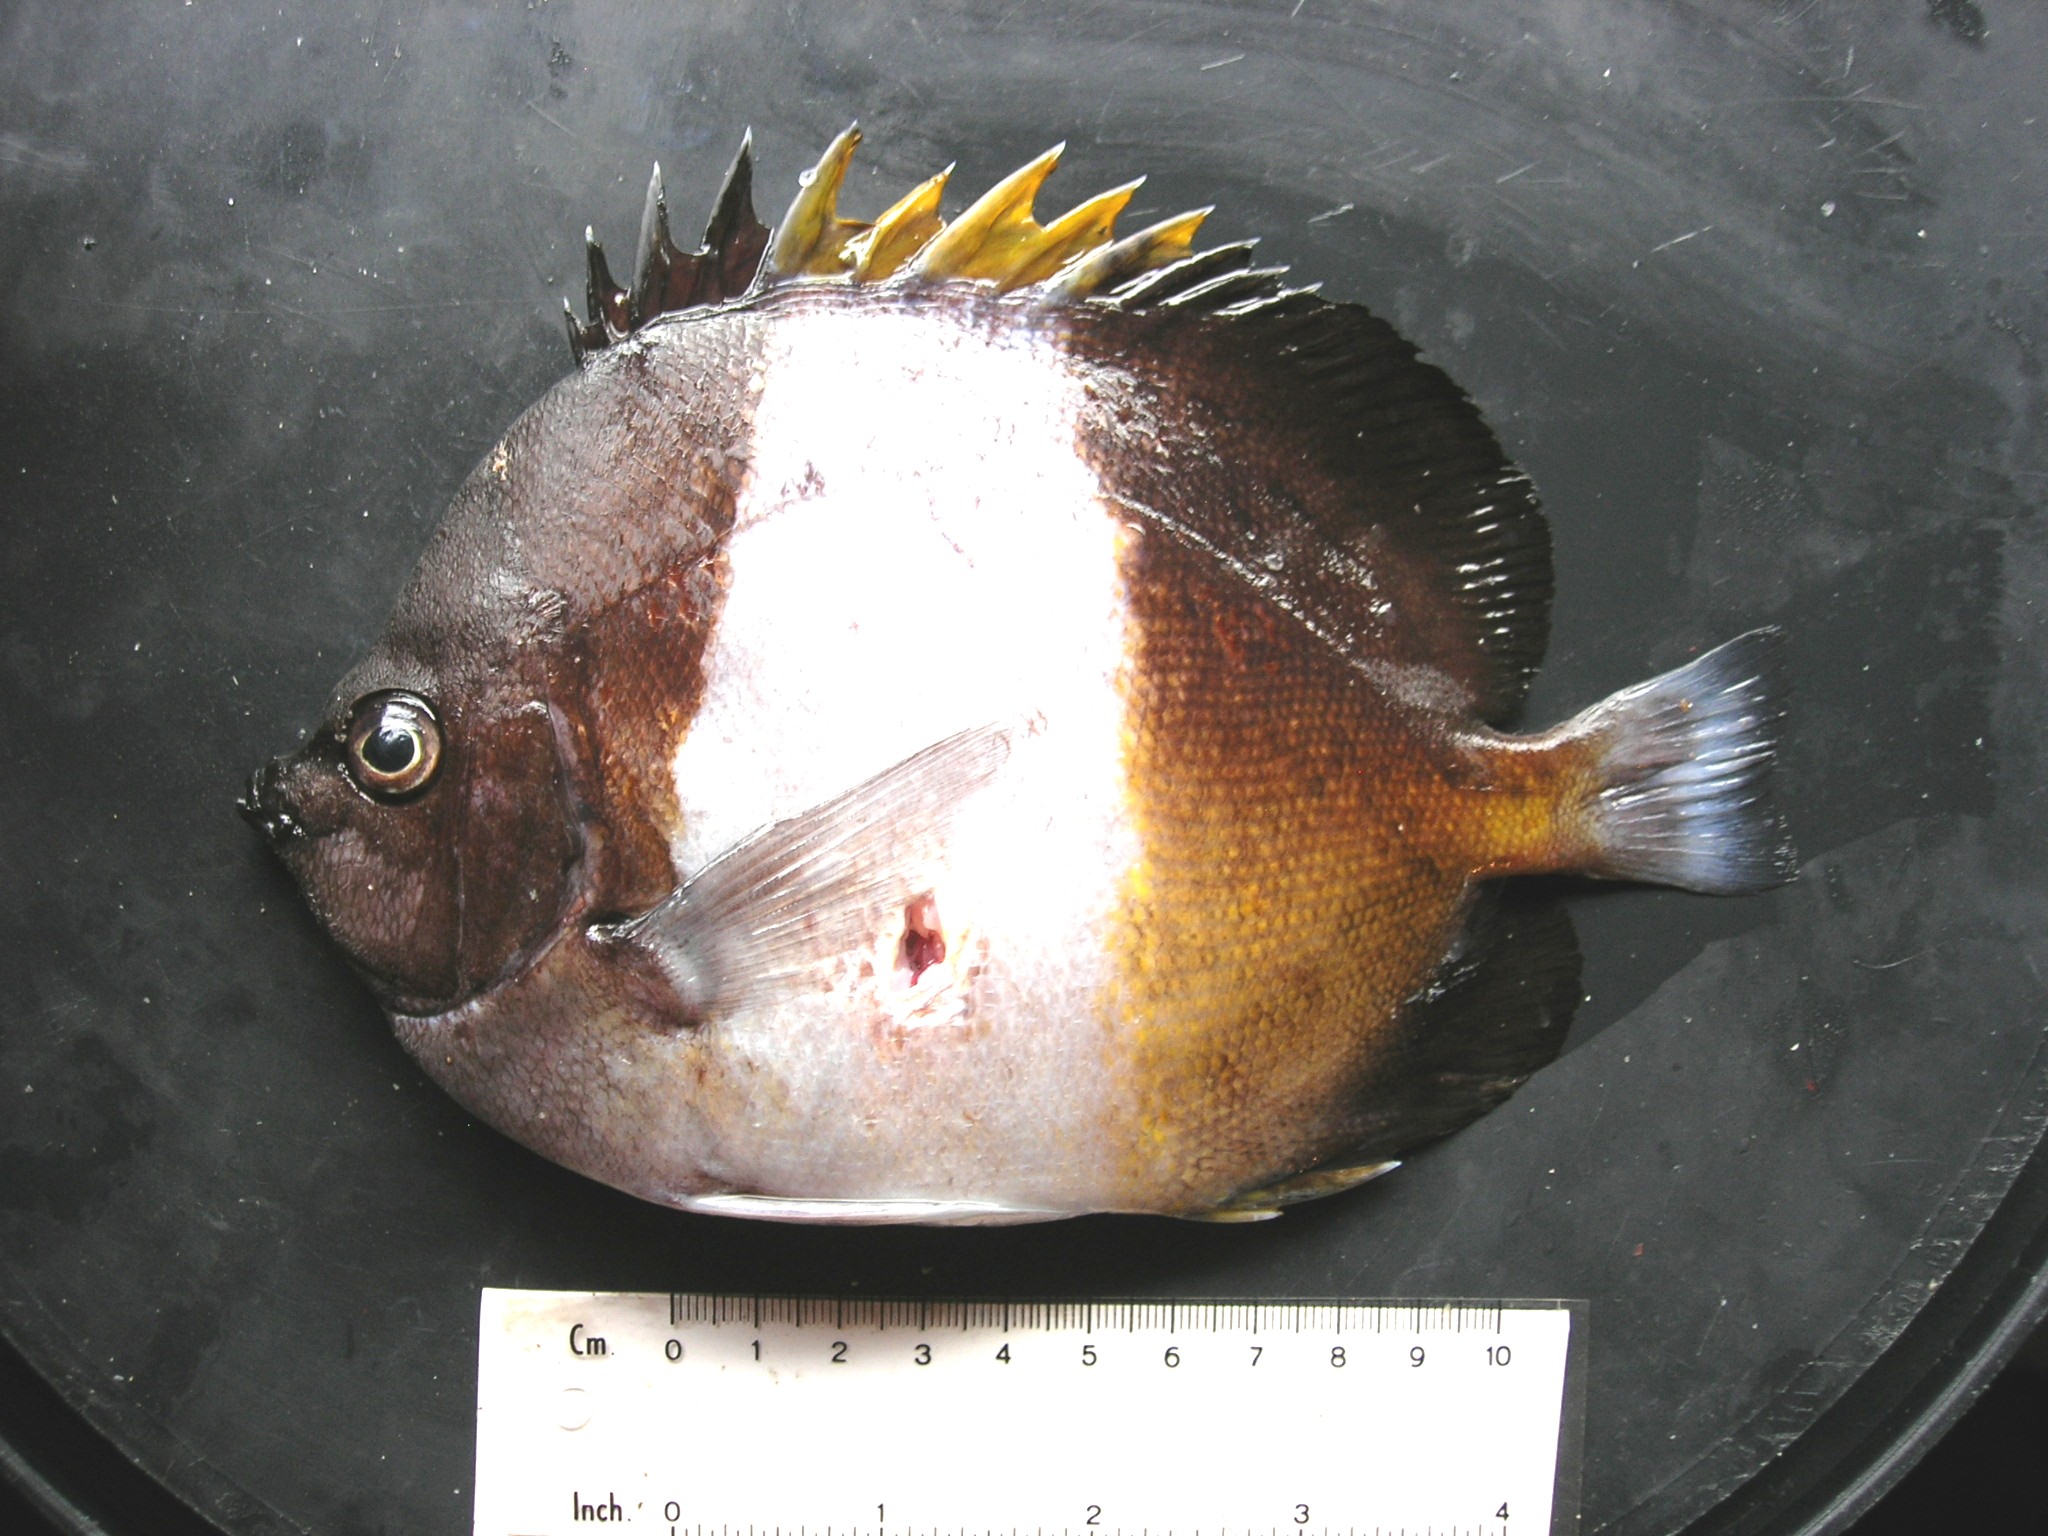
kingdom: Animalia
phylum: Chordata
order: Perciformes
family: Chaetodontidae
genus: Hemitaurichthys
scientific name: Hemitaurichthys zoster
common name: Brown-and-white butterflyfish
